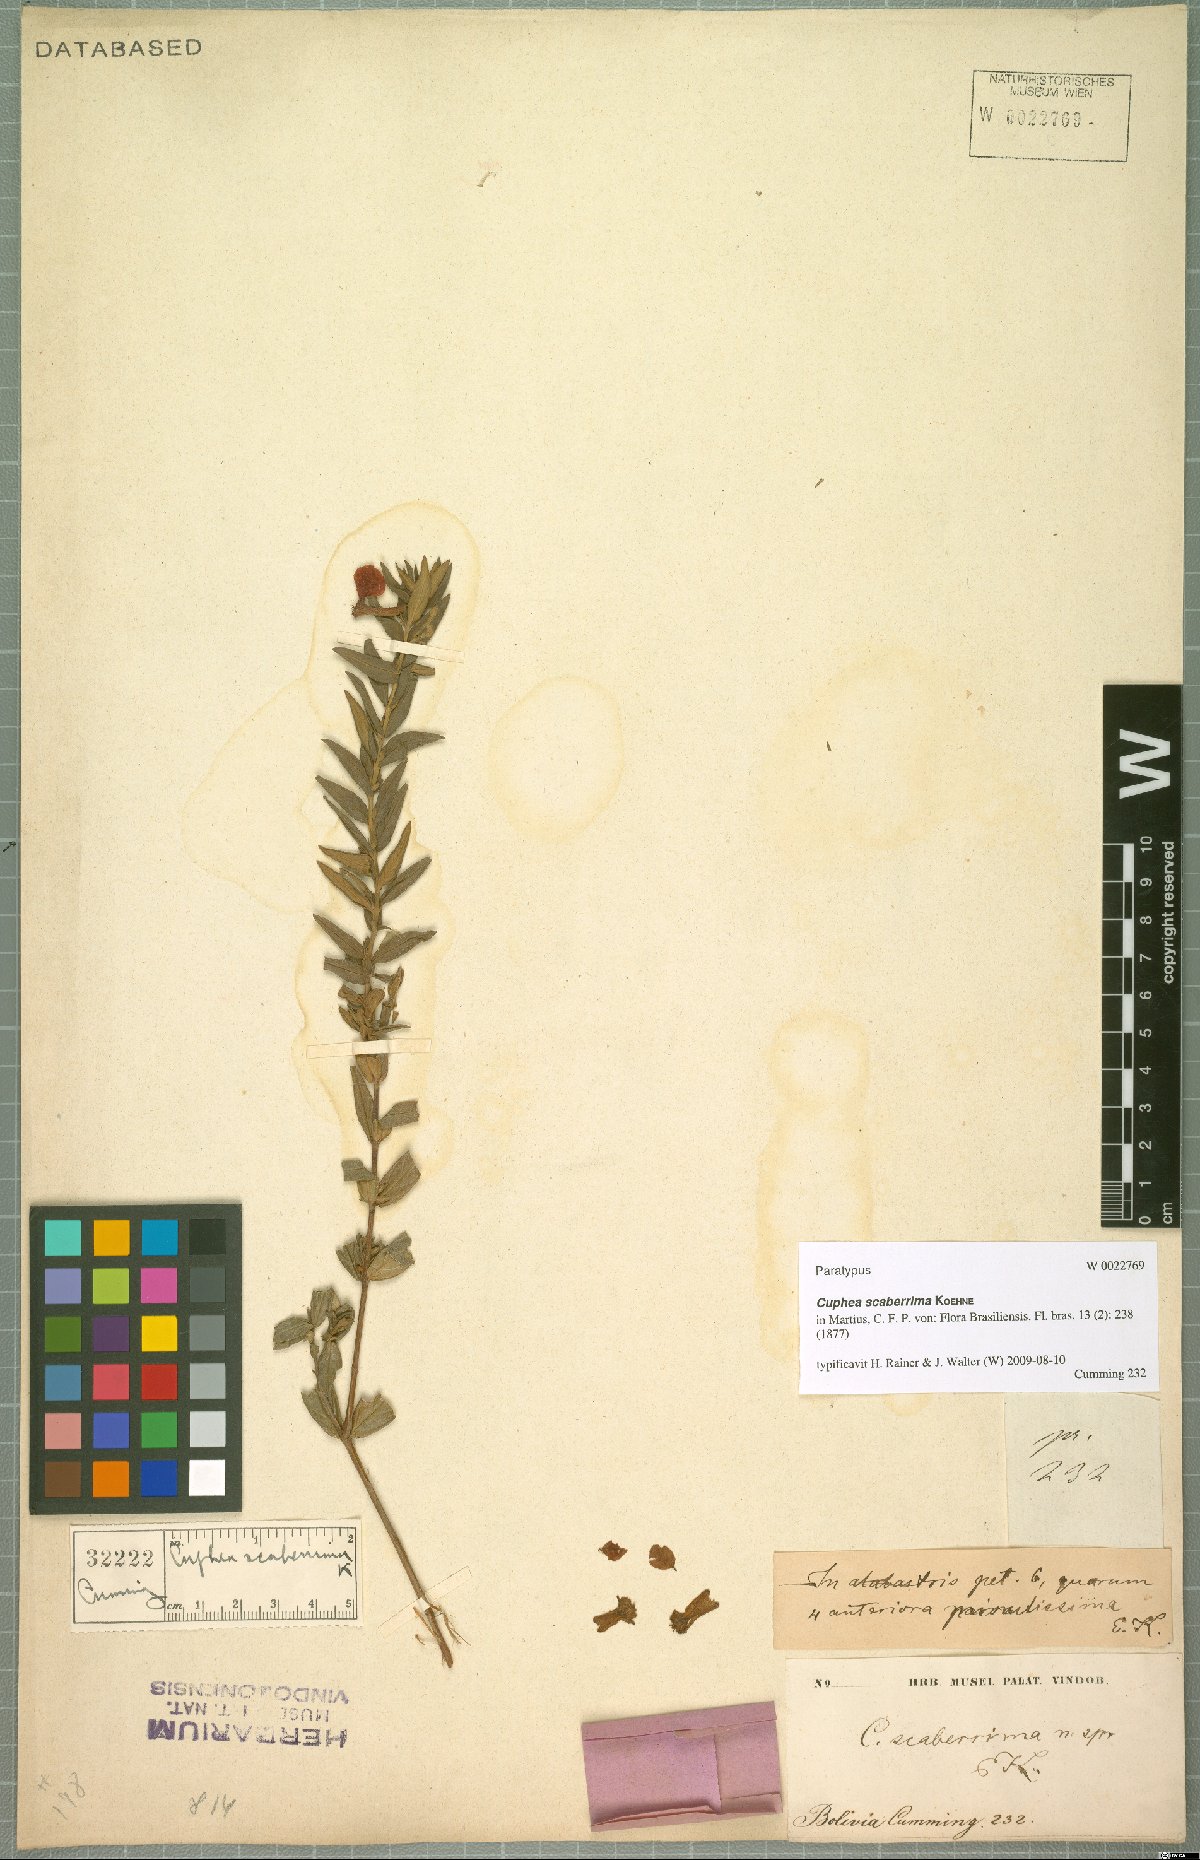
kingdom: Plantae
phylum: Tracheophyta
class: Magnoliopsida
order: Myrtales
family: Lythraceae
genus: Cuphea
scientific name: Cuphea scaberrima
